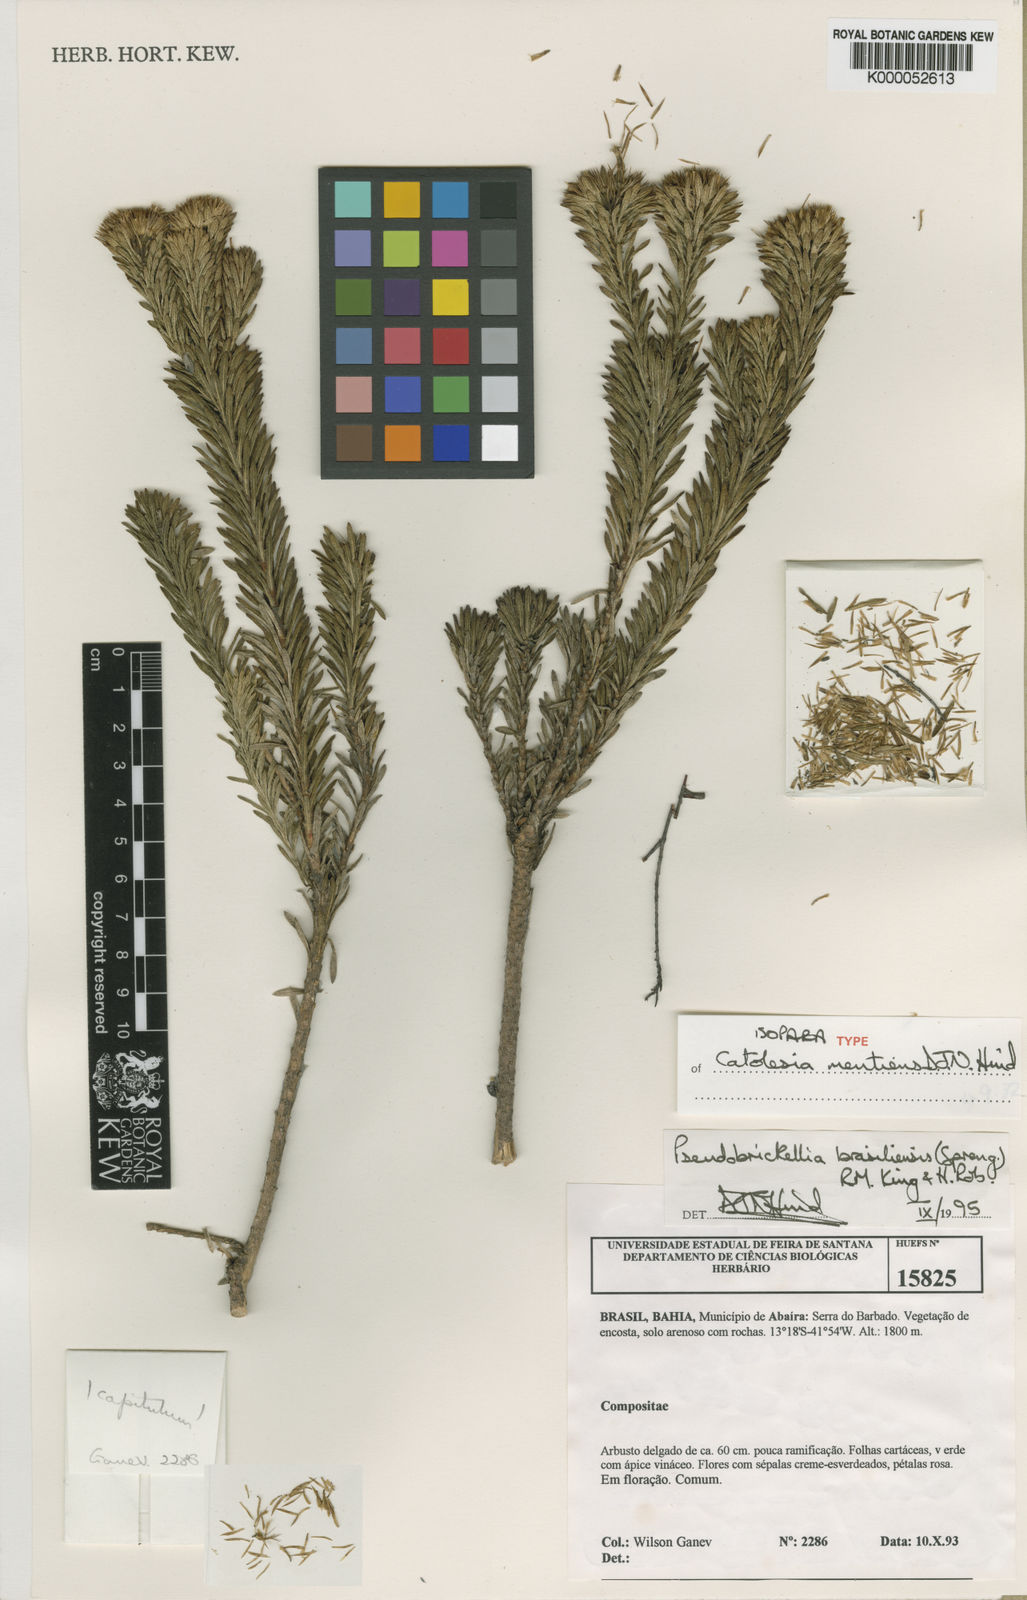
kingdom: Plantae
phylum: Tracheophyta
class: Magnoliopsida
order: Asterales
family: Asteraceae
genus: Catolesia
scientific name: Catolesia mentiens
